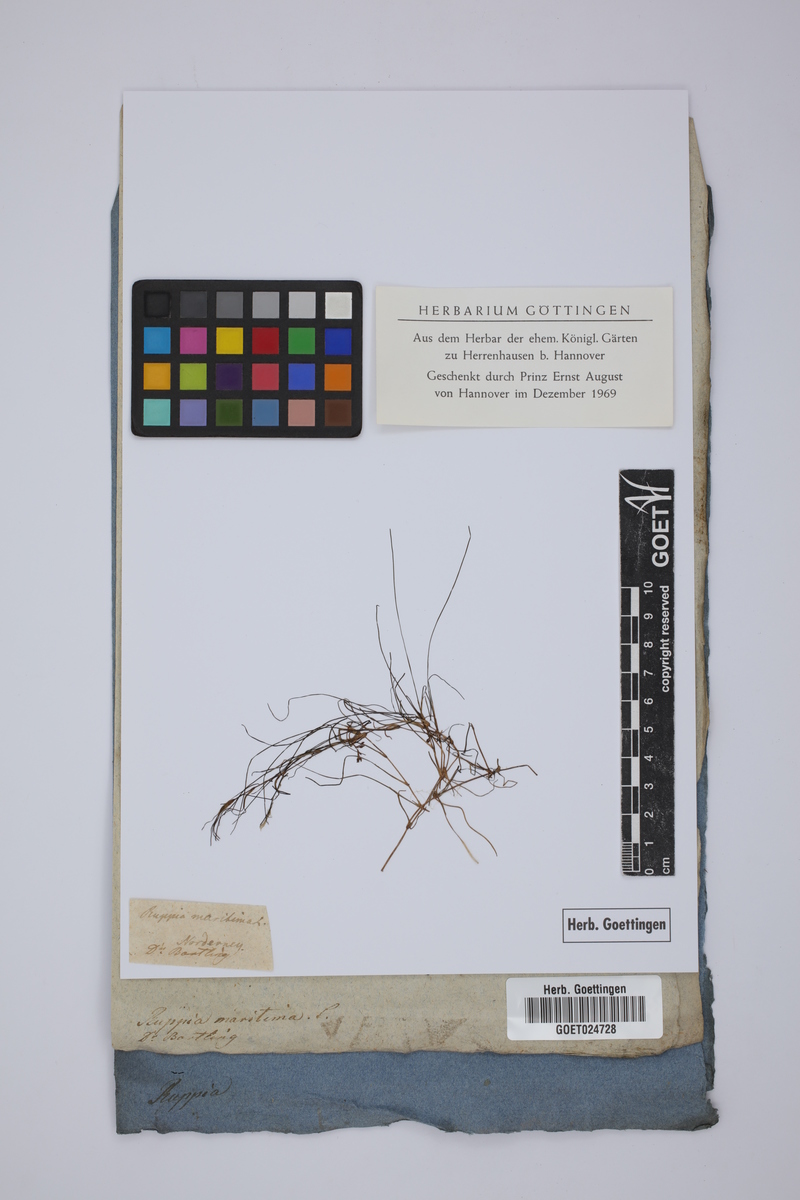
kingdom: Plantae
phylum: Tracheophyta
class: Liliopsida
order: Alismatales
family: Ruppiaceae
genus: Ruppia
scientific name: Ruppia maritima
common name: Beaked tasselweed
